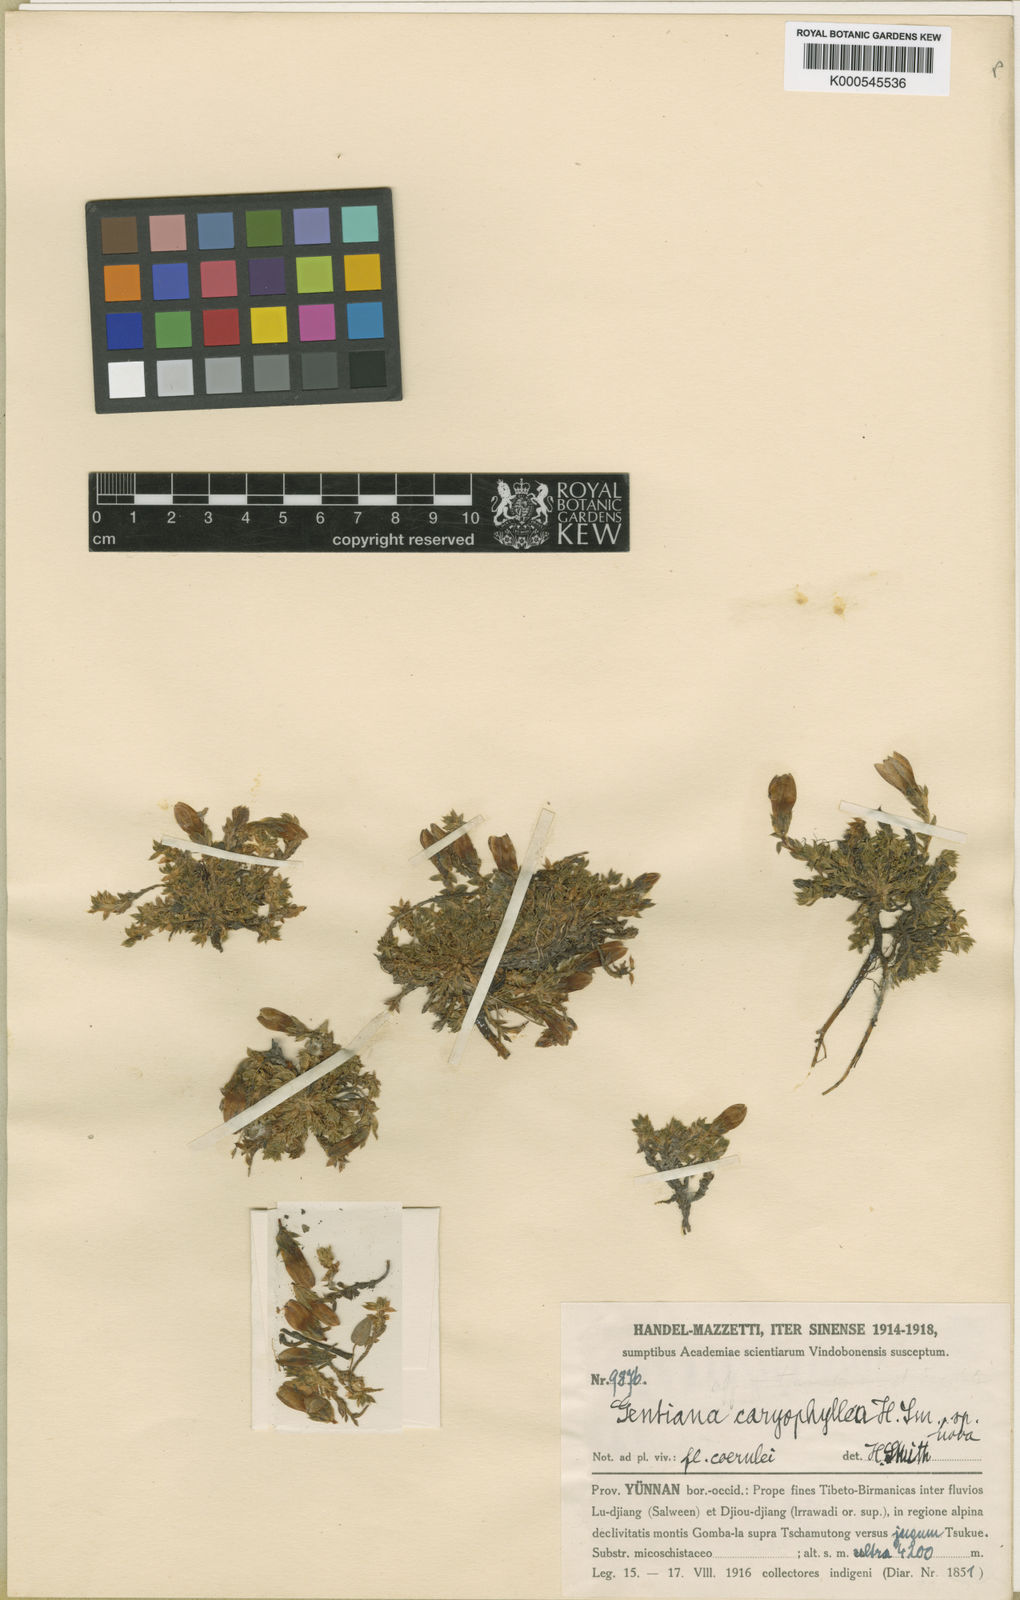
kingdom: Plantae
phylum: Tracheophyta
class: Magnoliopsida
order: Gentianales
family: Gentianaceae
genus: Kuepferia
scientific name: Kuepferia caryophyllea
